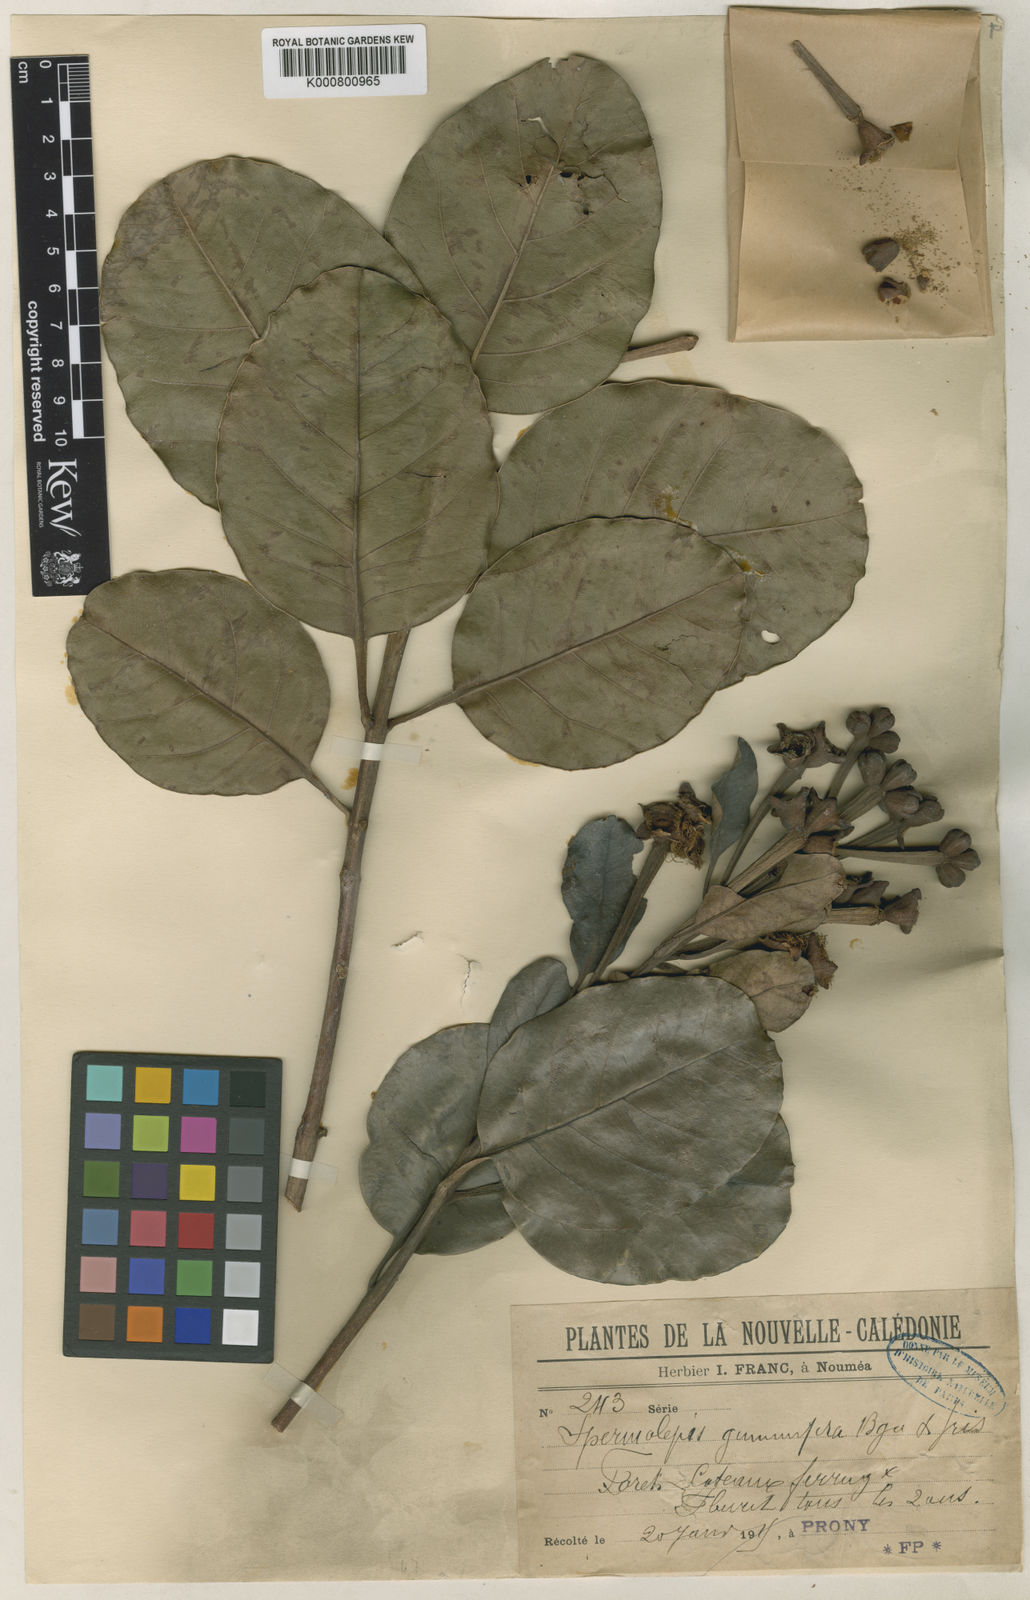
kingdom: Plantae
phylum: Tracheophyta
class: Magnoliopsida
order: Myrtales
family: Myrtaceae
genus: Arillastrum
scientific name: Arillastrum gummiferum
